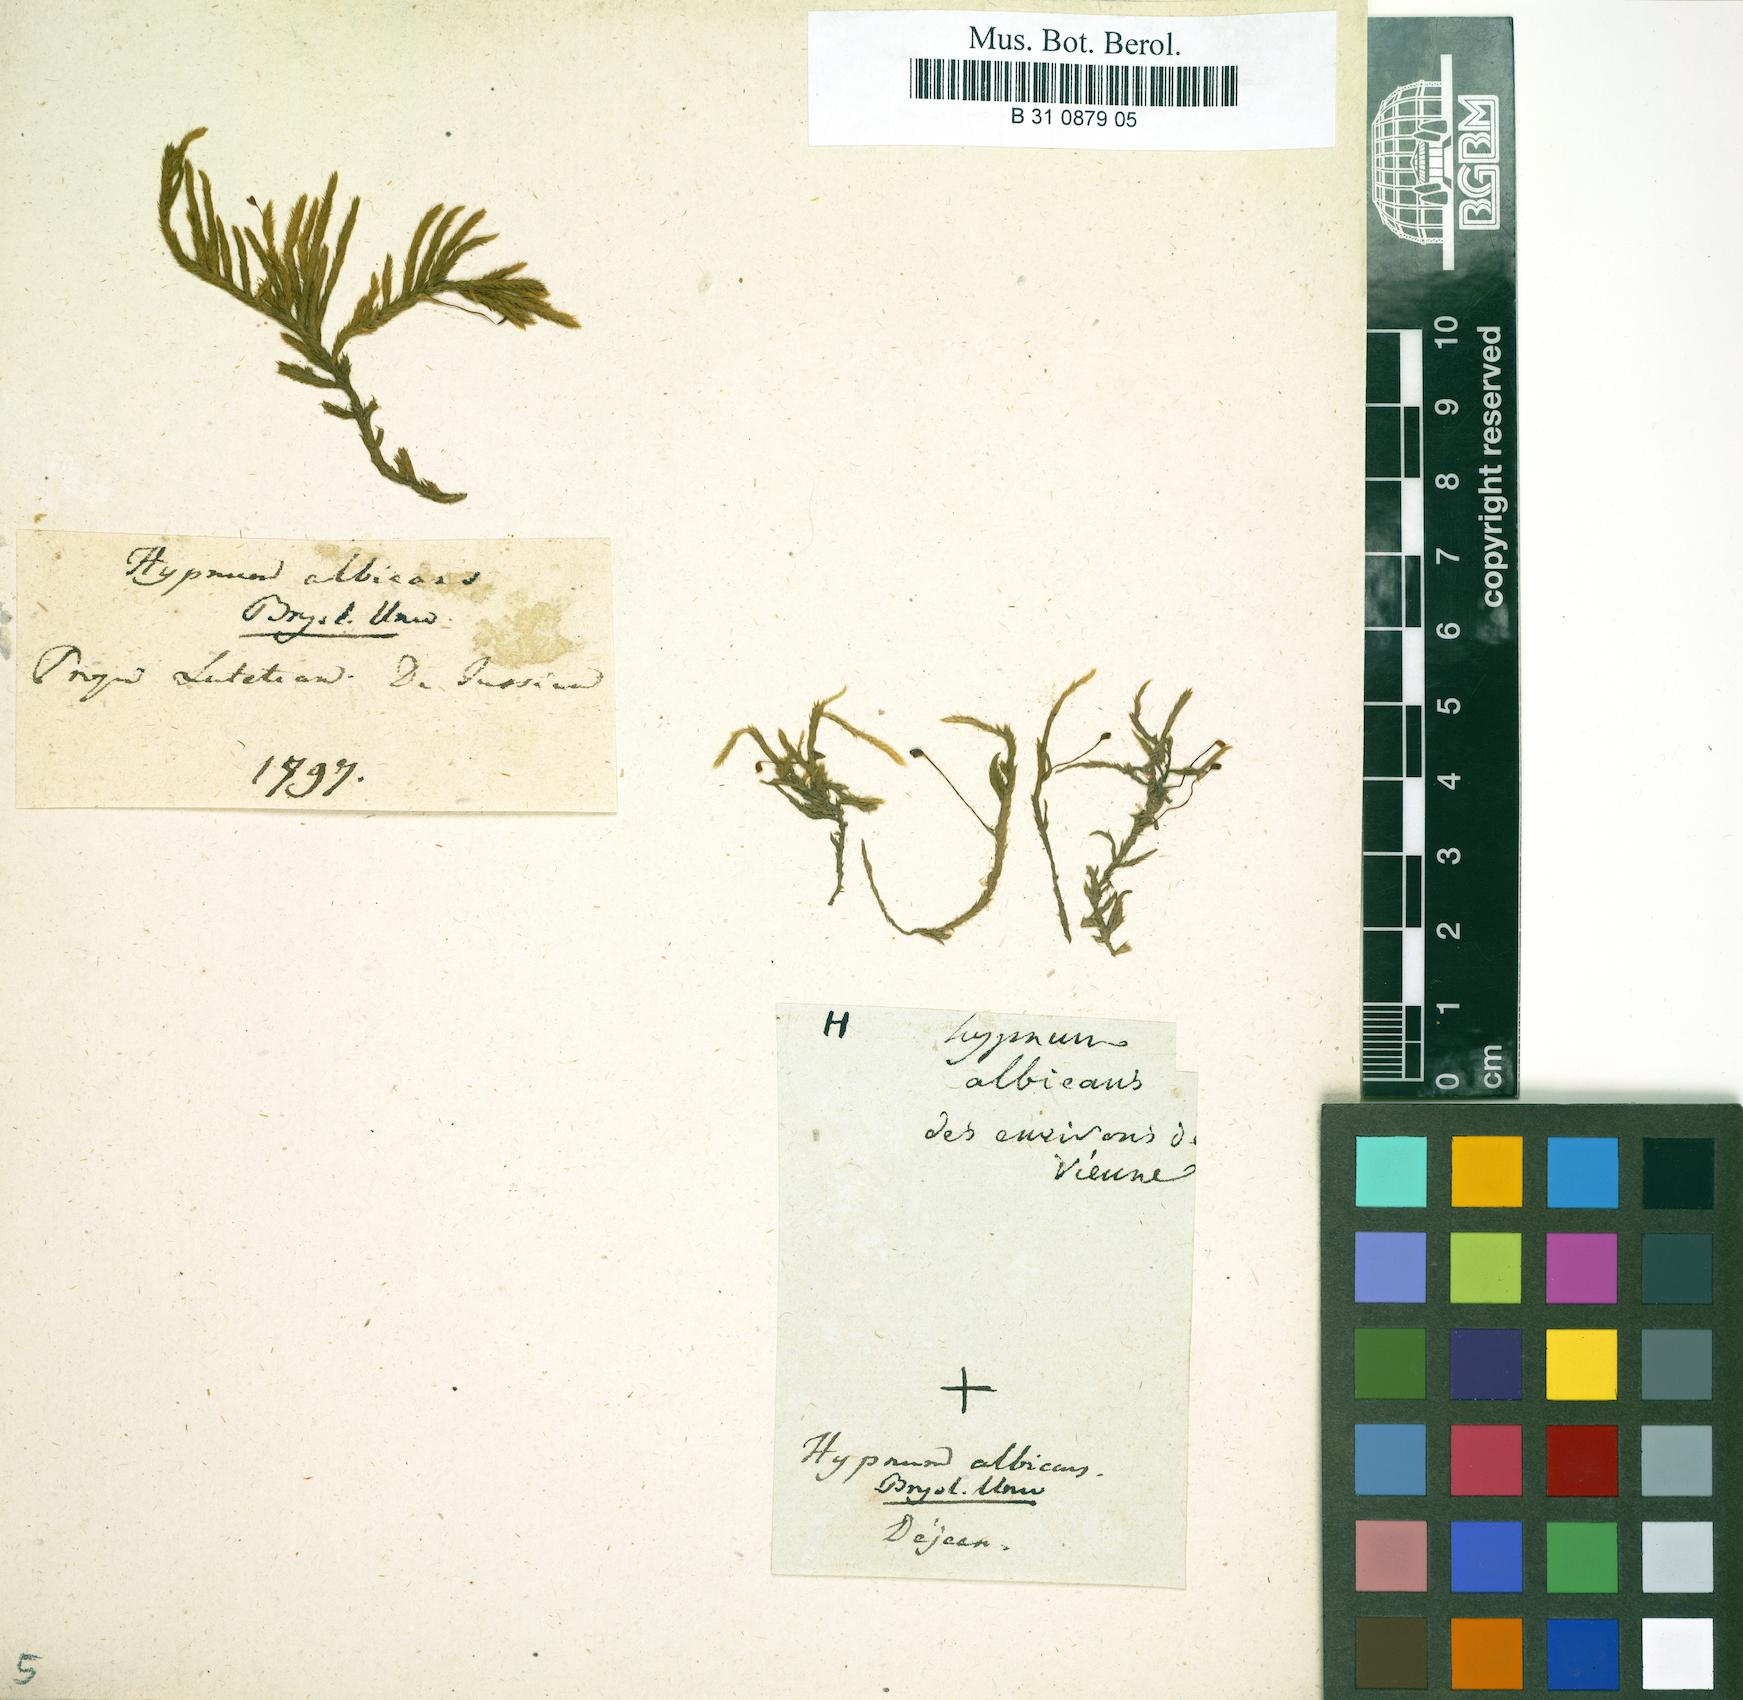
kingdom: Plantae
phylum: Bryophyta
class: Bryopsida
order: Hypnales
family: Brachytheciaceae
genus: Brachythecium
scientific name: Brachythecium albicans
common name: Whitish ragged moss
